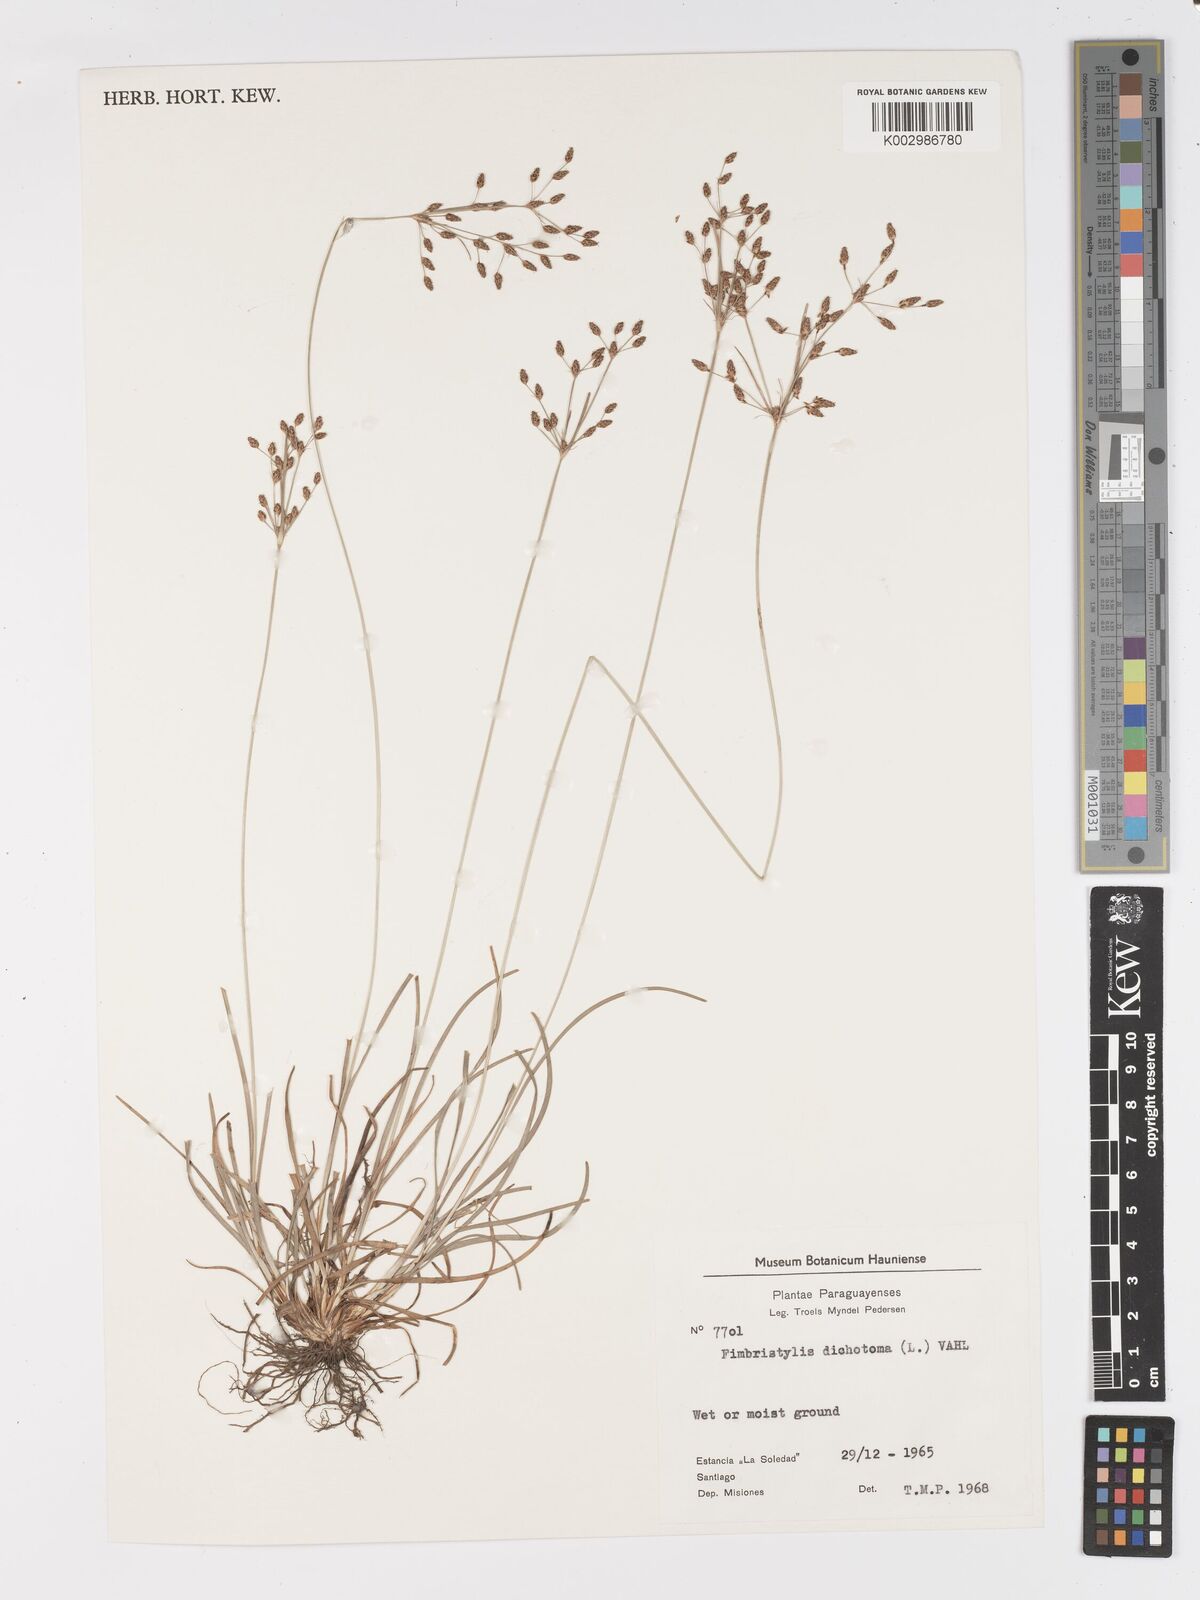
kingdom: Plantae
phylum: Tracheophyta
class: Liliopsida
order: Poales
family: Cyperaceae
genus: Fimbristylis
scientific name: Fimbristylis dichotoma
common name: Forked fimbry
